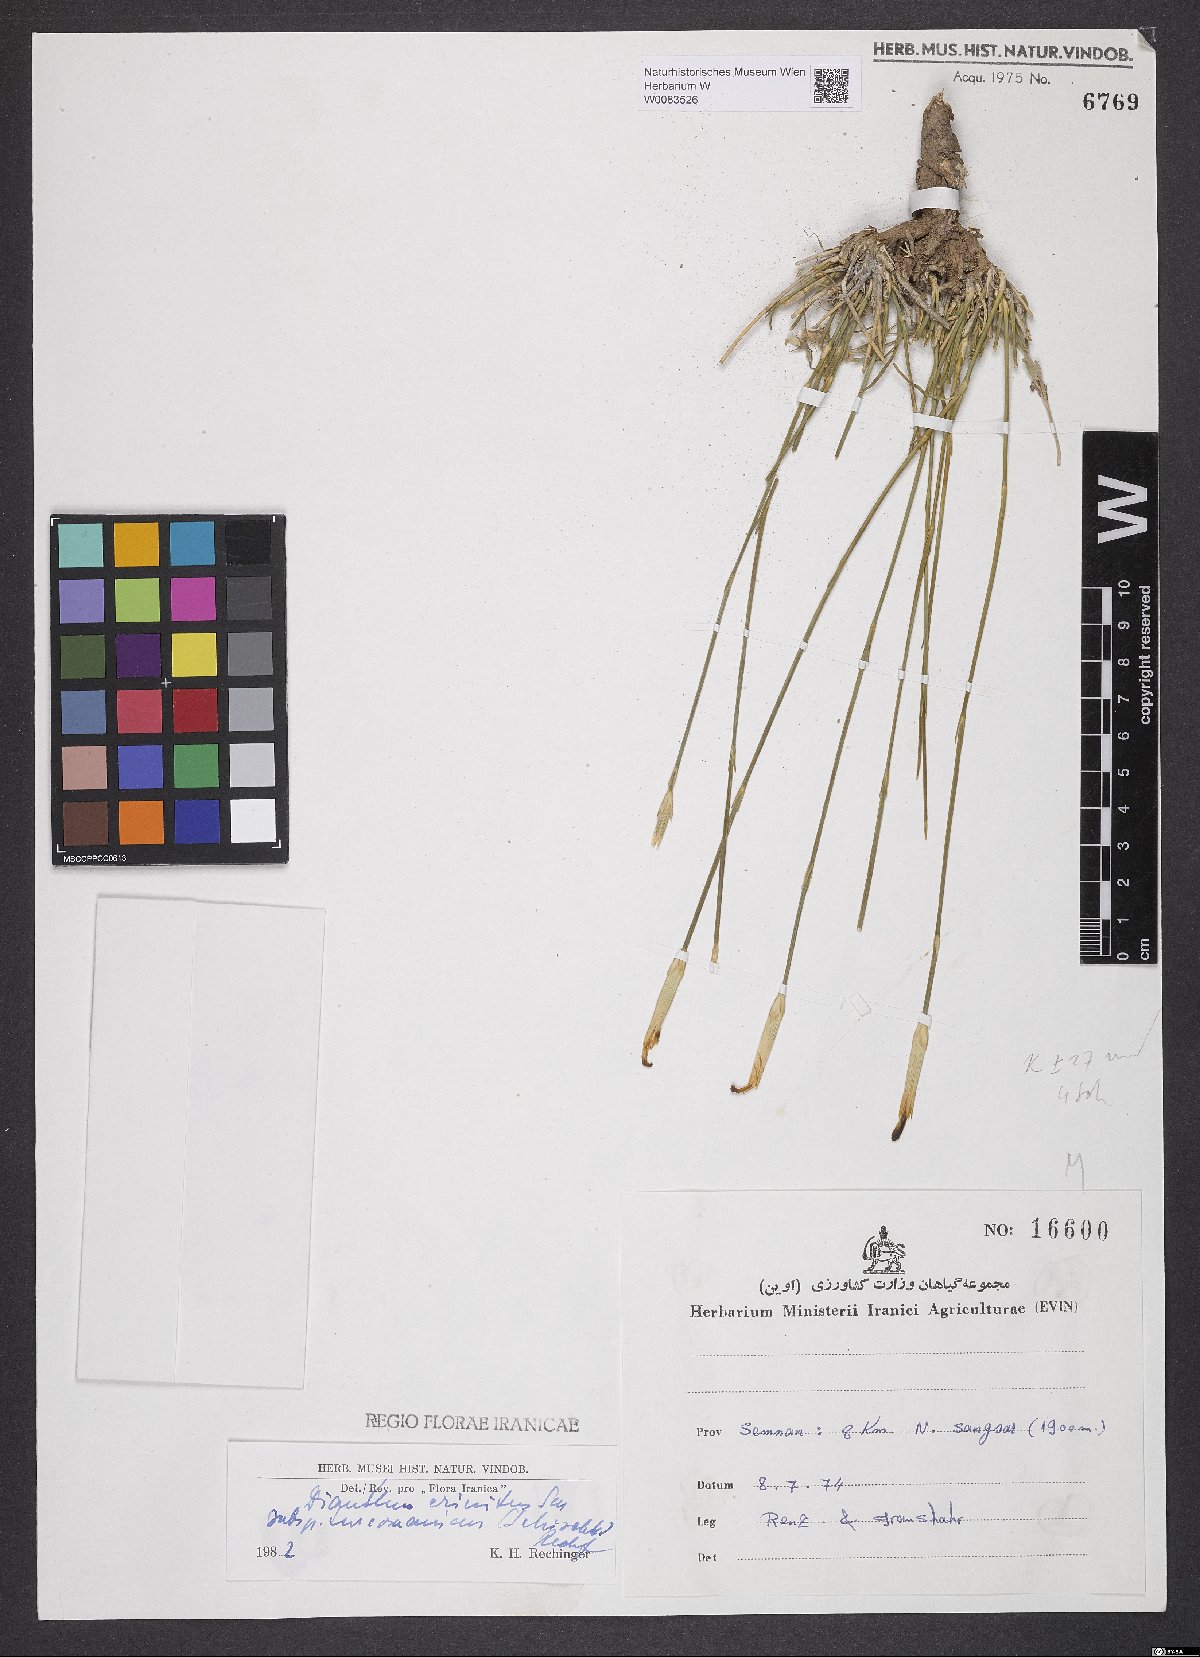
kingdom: Plantae
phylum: Tracheophyta
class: Magnoliopsida
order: Caryophyllales
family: Caryophyllaceae
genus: Dianthus
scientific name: Dianthus turkestanicus
